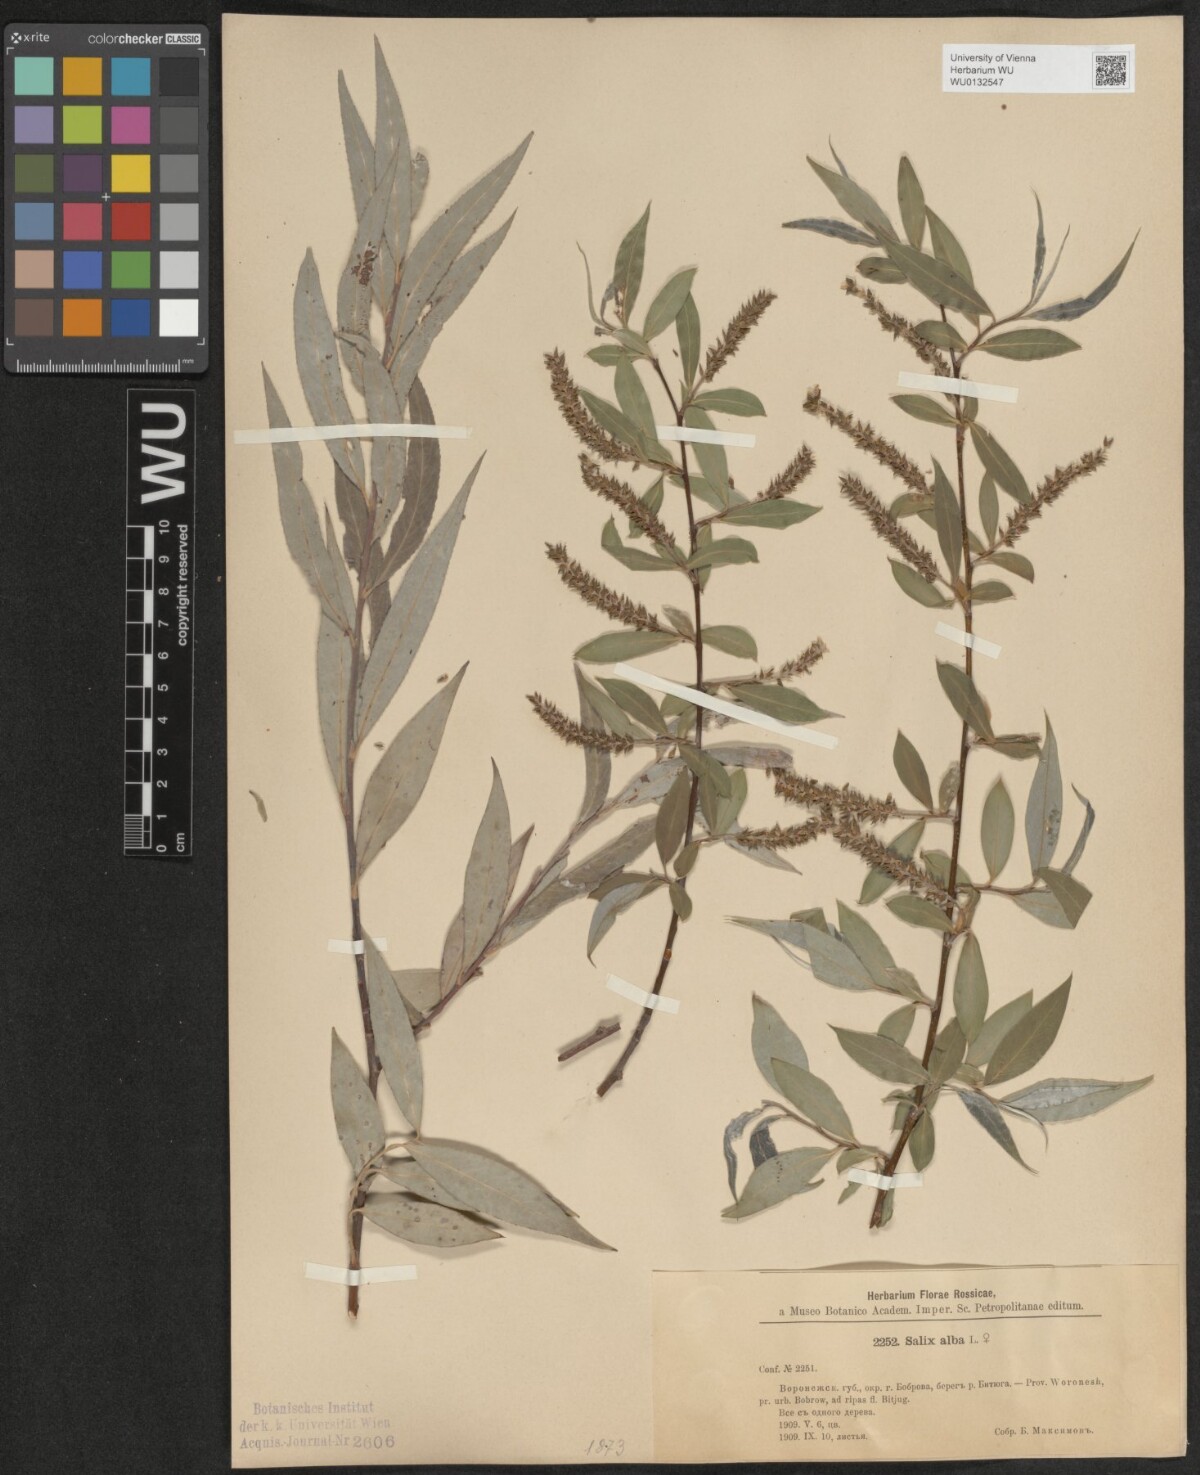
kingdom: Plantae
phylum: Tracheophyta
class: Magnoliopsida
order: Malpighiales
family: Salicaceae
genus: Salix
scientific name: Salix alba
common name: White willow
